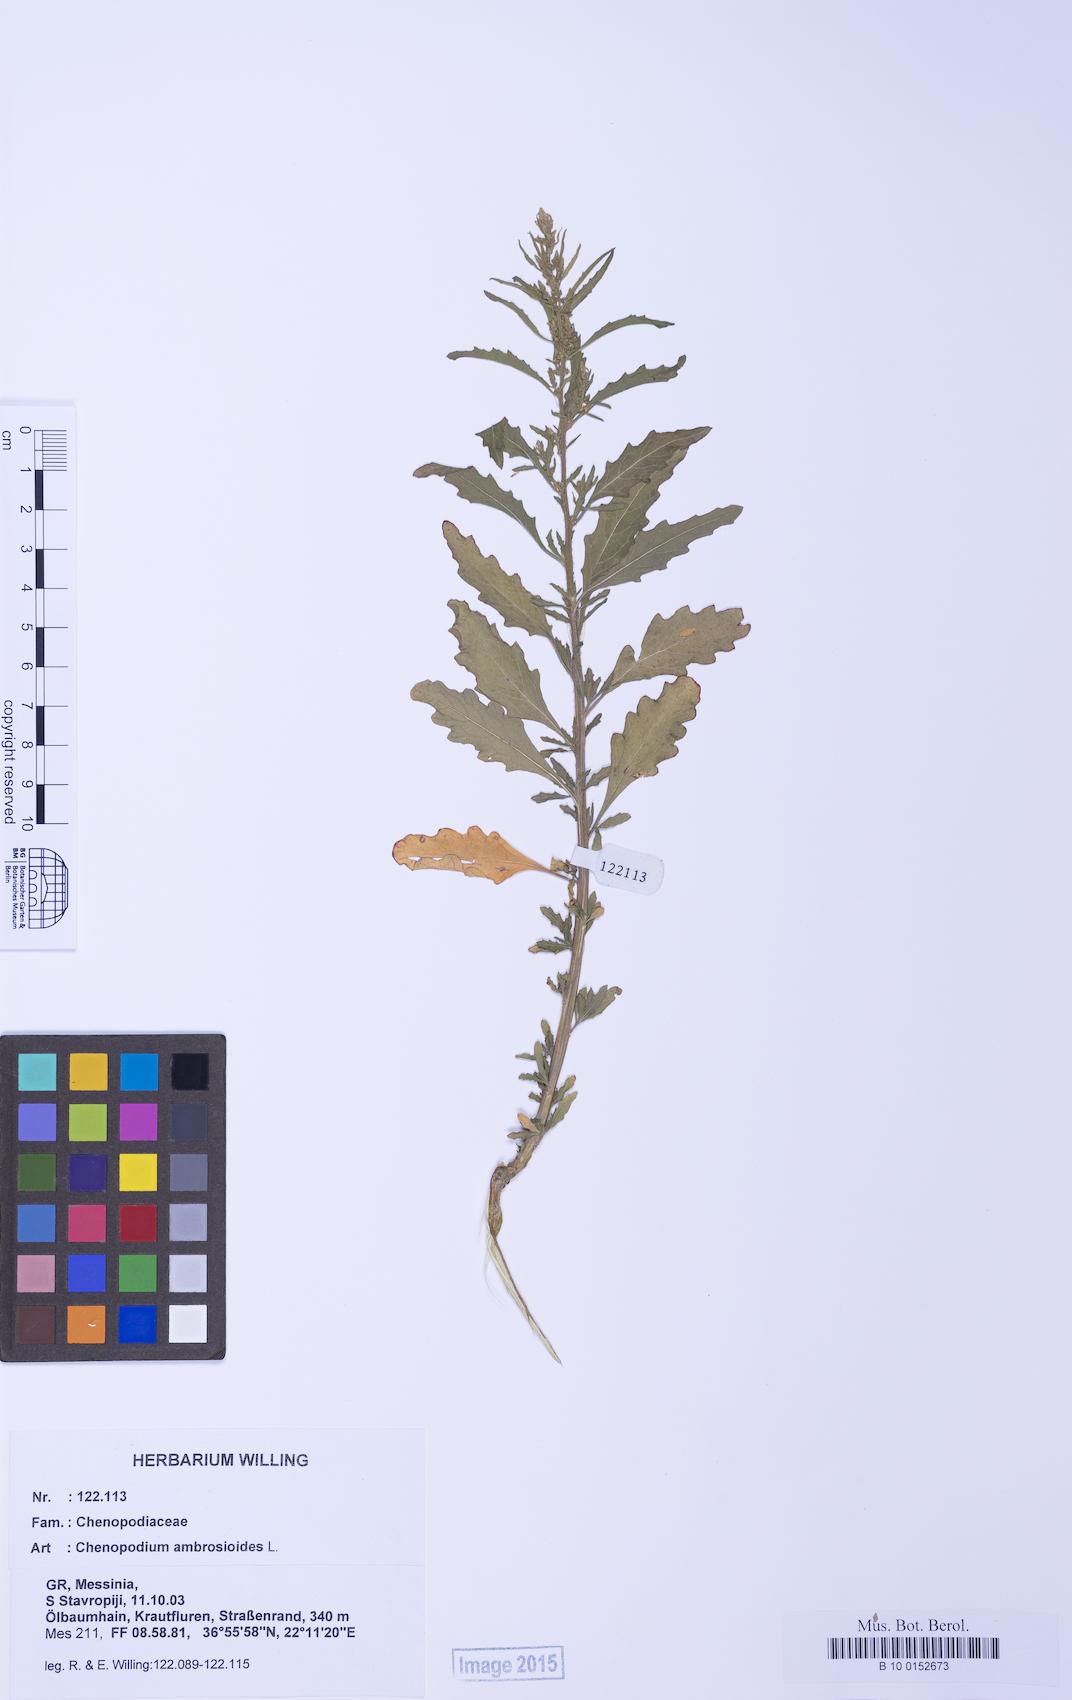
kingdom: Plantae
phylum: Tracheophyta
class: Magnoliopsida
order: Caryophyllales
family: Amaranthaceae
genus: Dysphania
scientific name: Dysphania ambrosioides
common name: Wormseed
